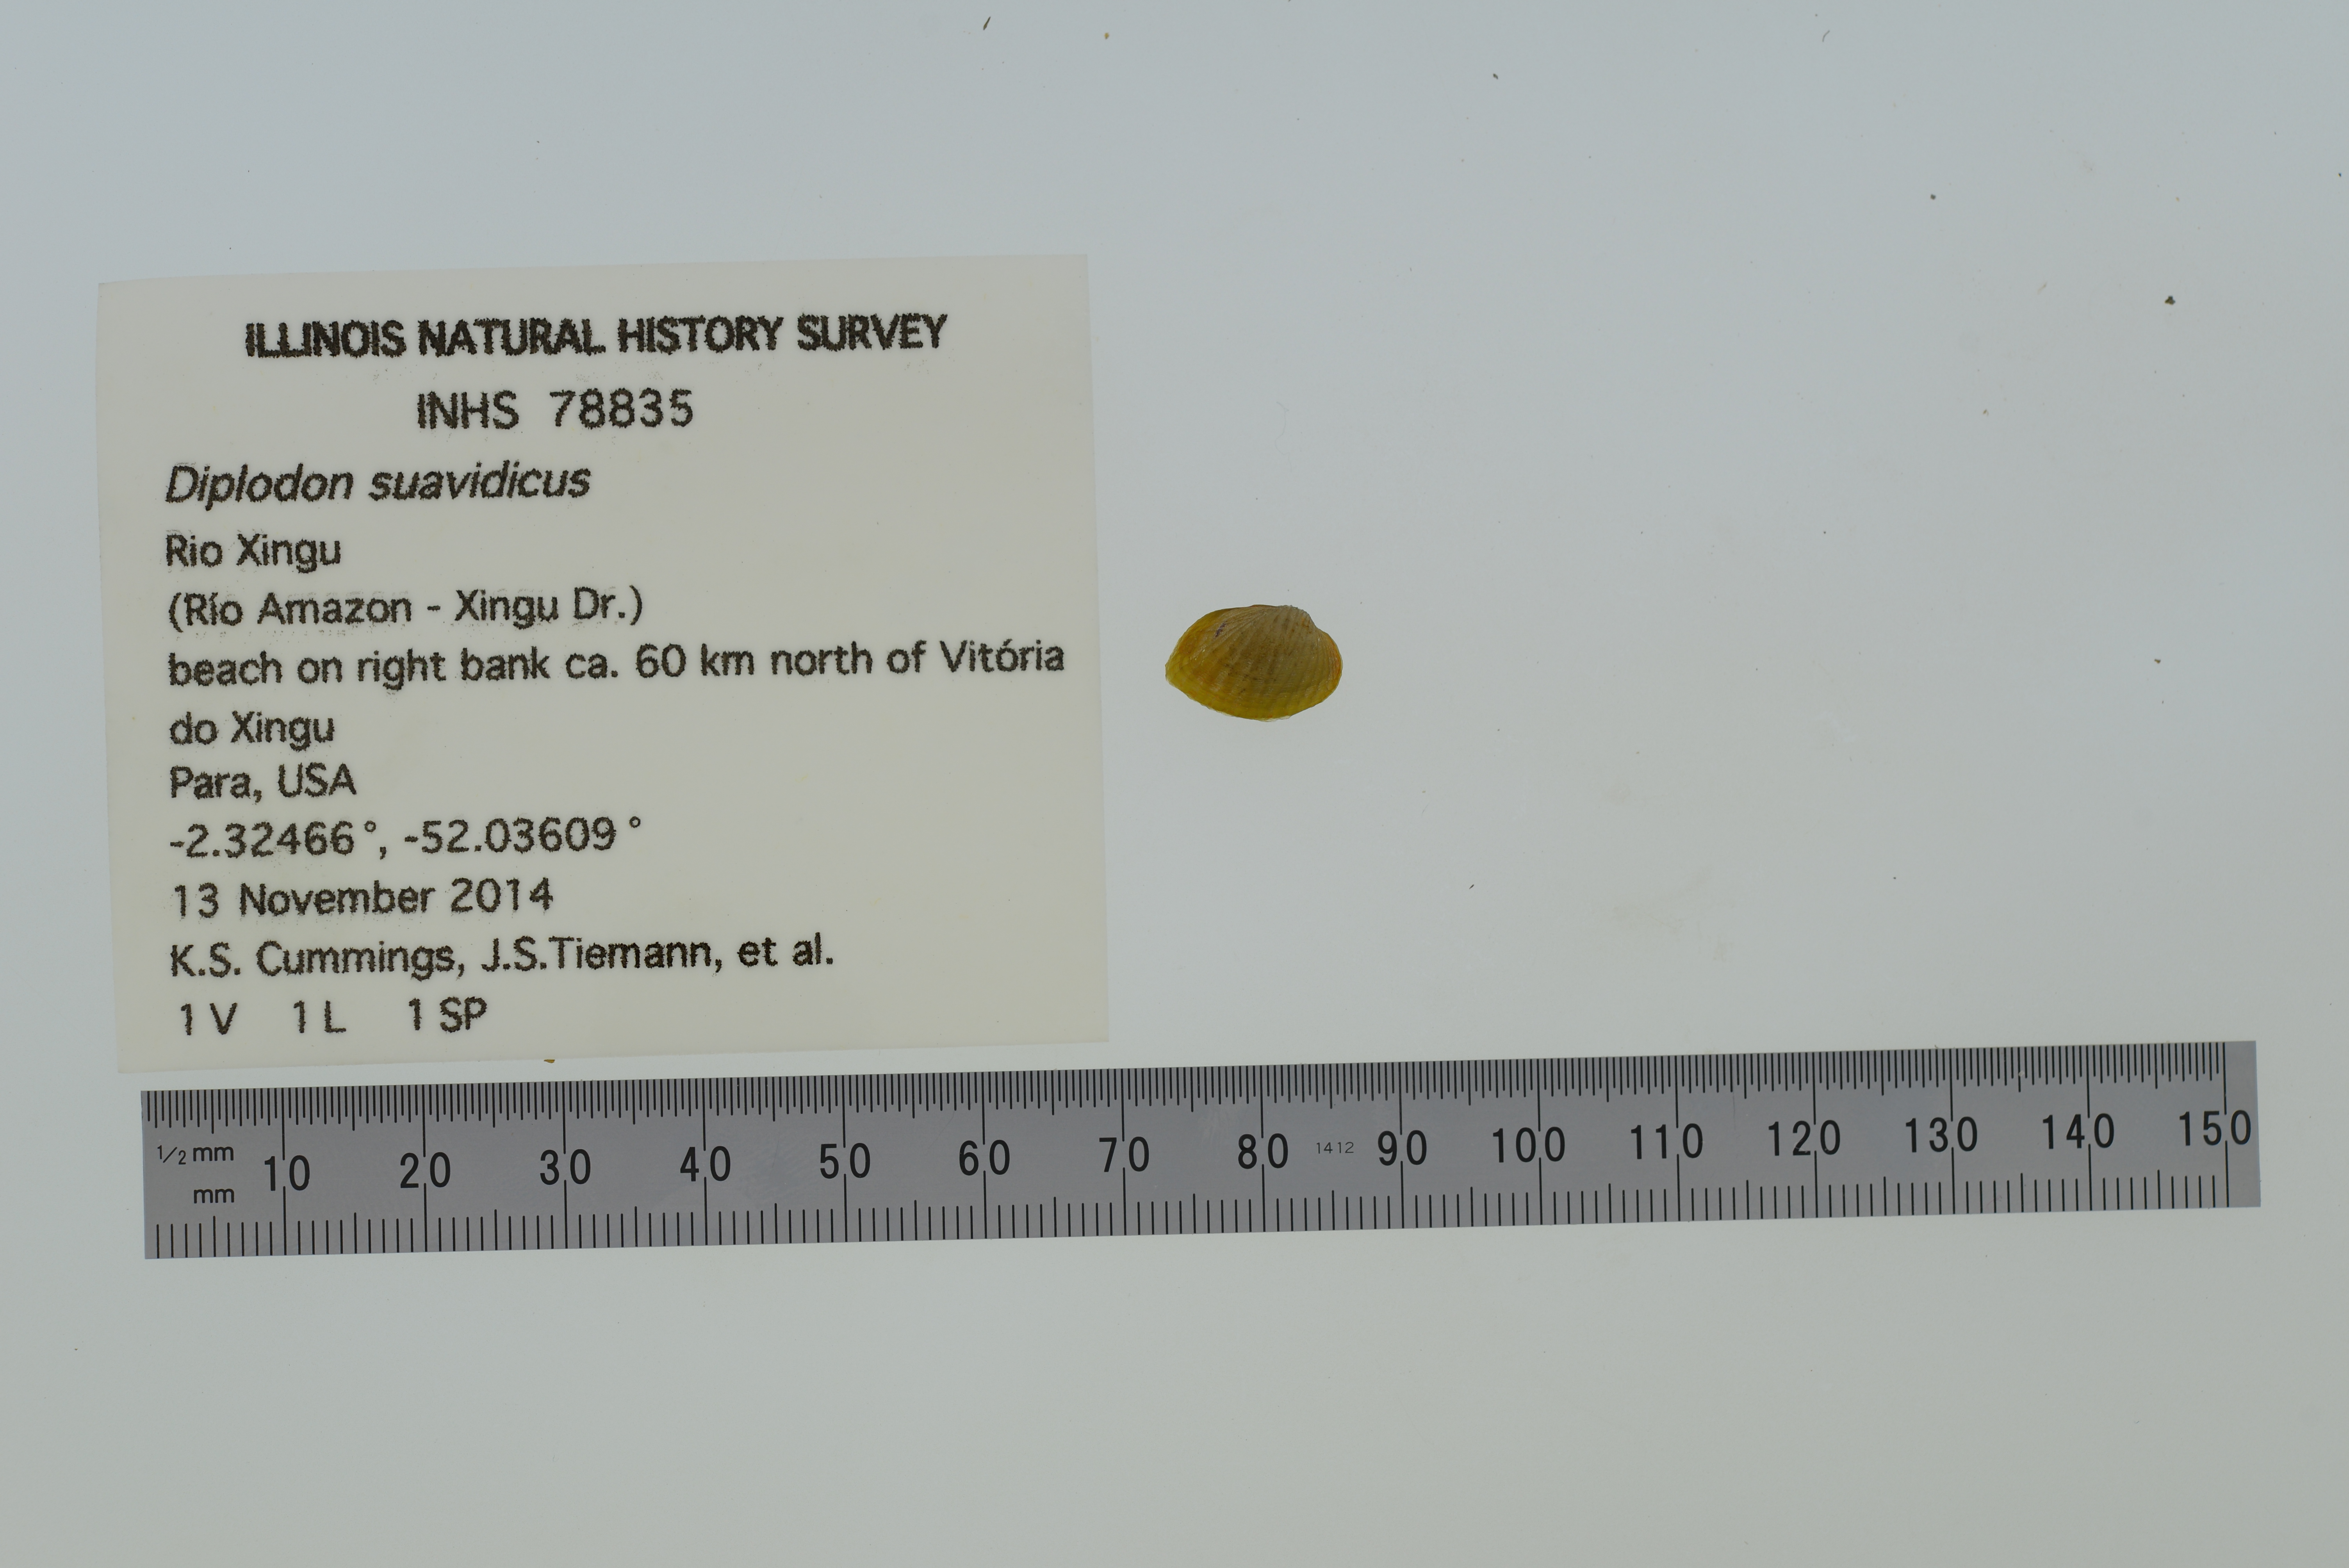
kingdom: Animalia
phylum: Mollusca
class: Bivalvia
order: Unionida
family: Hyriidae
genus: Diplodon
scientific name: Diplodon suavidicus
